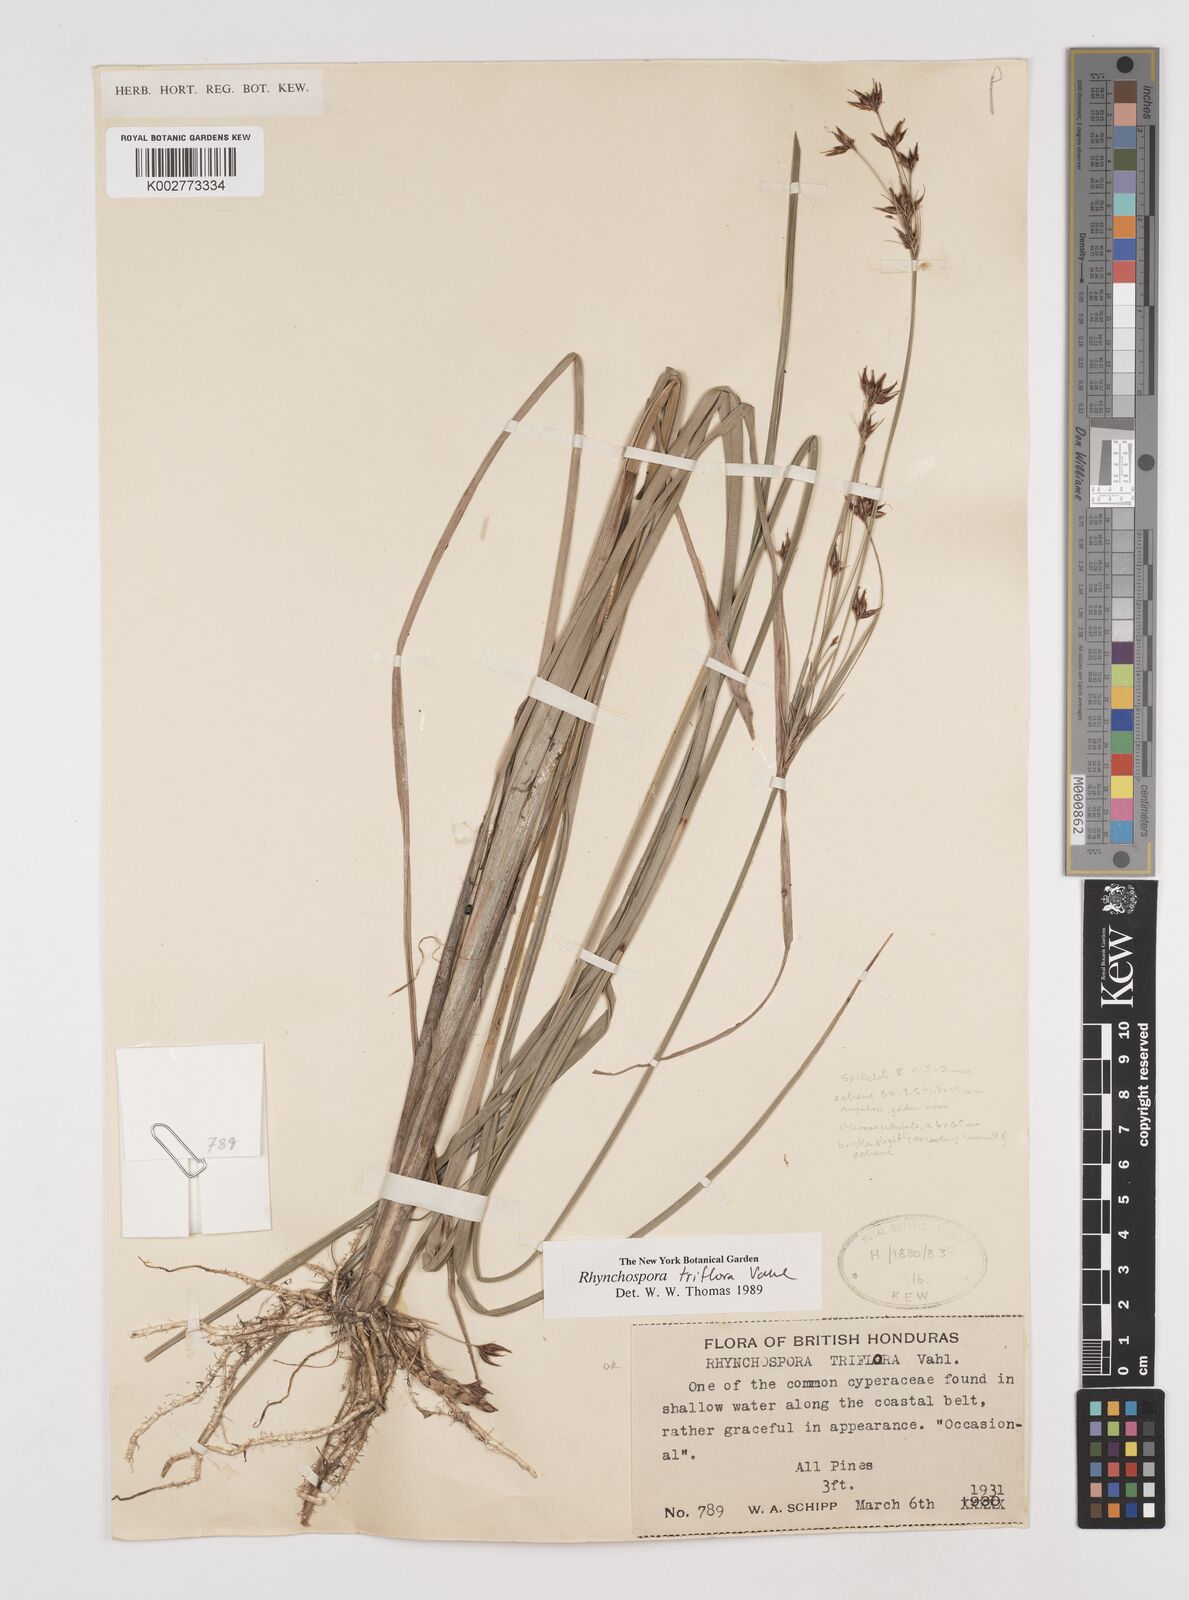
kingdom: Plantae
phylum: Tracheophyta
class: Liliopsida
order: Poales
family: Cyperaceae
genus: Rhynchospora
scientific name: Rhynchospora triflora
